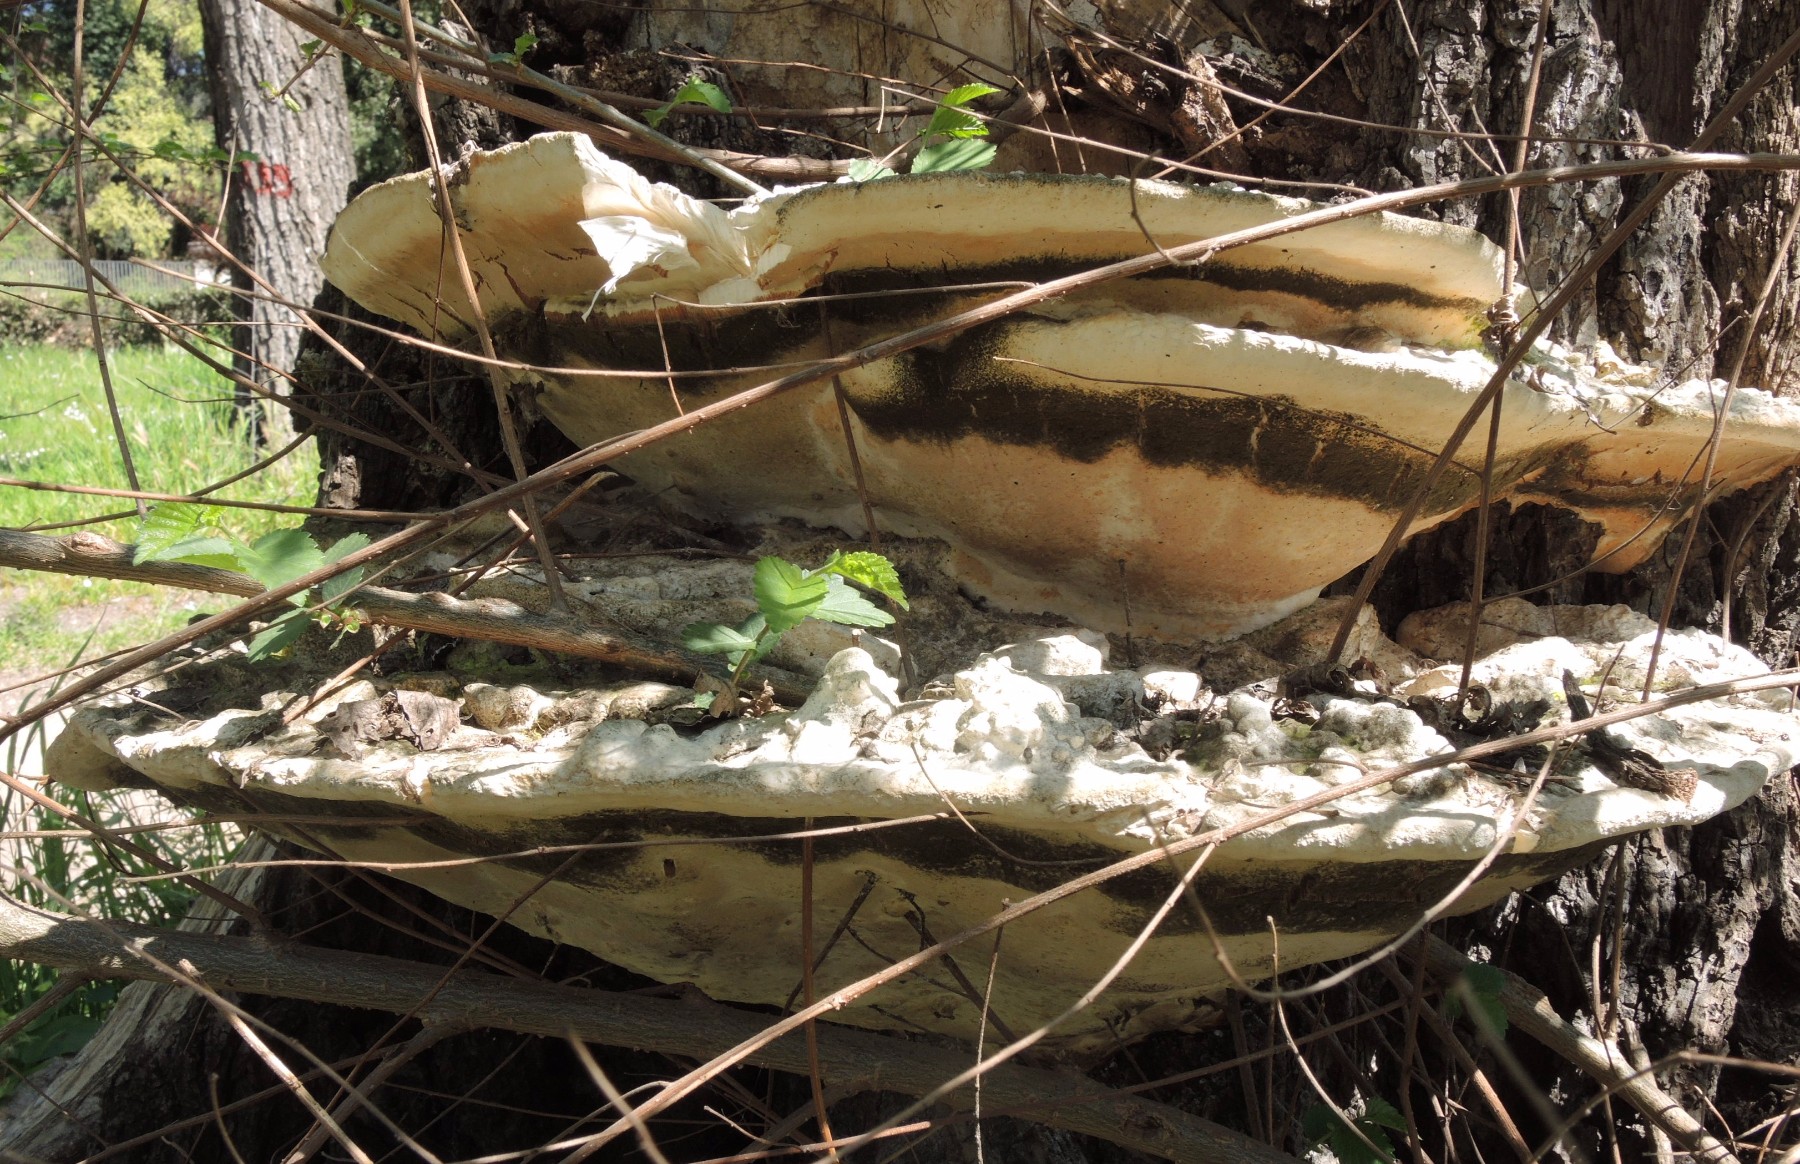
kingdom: Fungi
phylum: Basidiomycota
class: Agaricomycetes
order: Polyporales
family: Meripilaceae
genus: Rigidoporus
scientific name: Rigidoporus ulmarius
